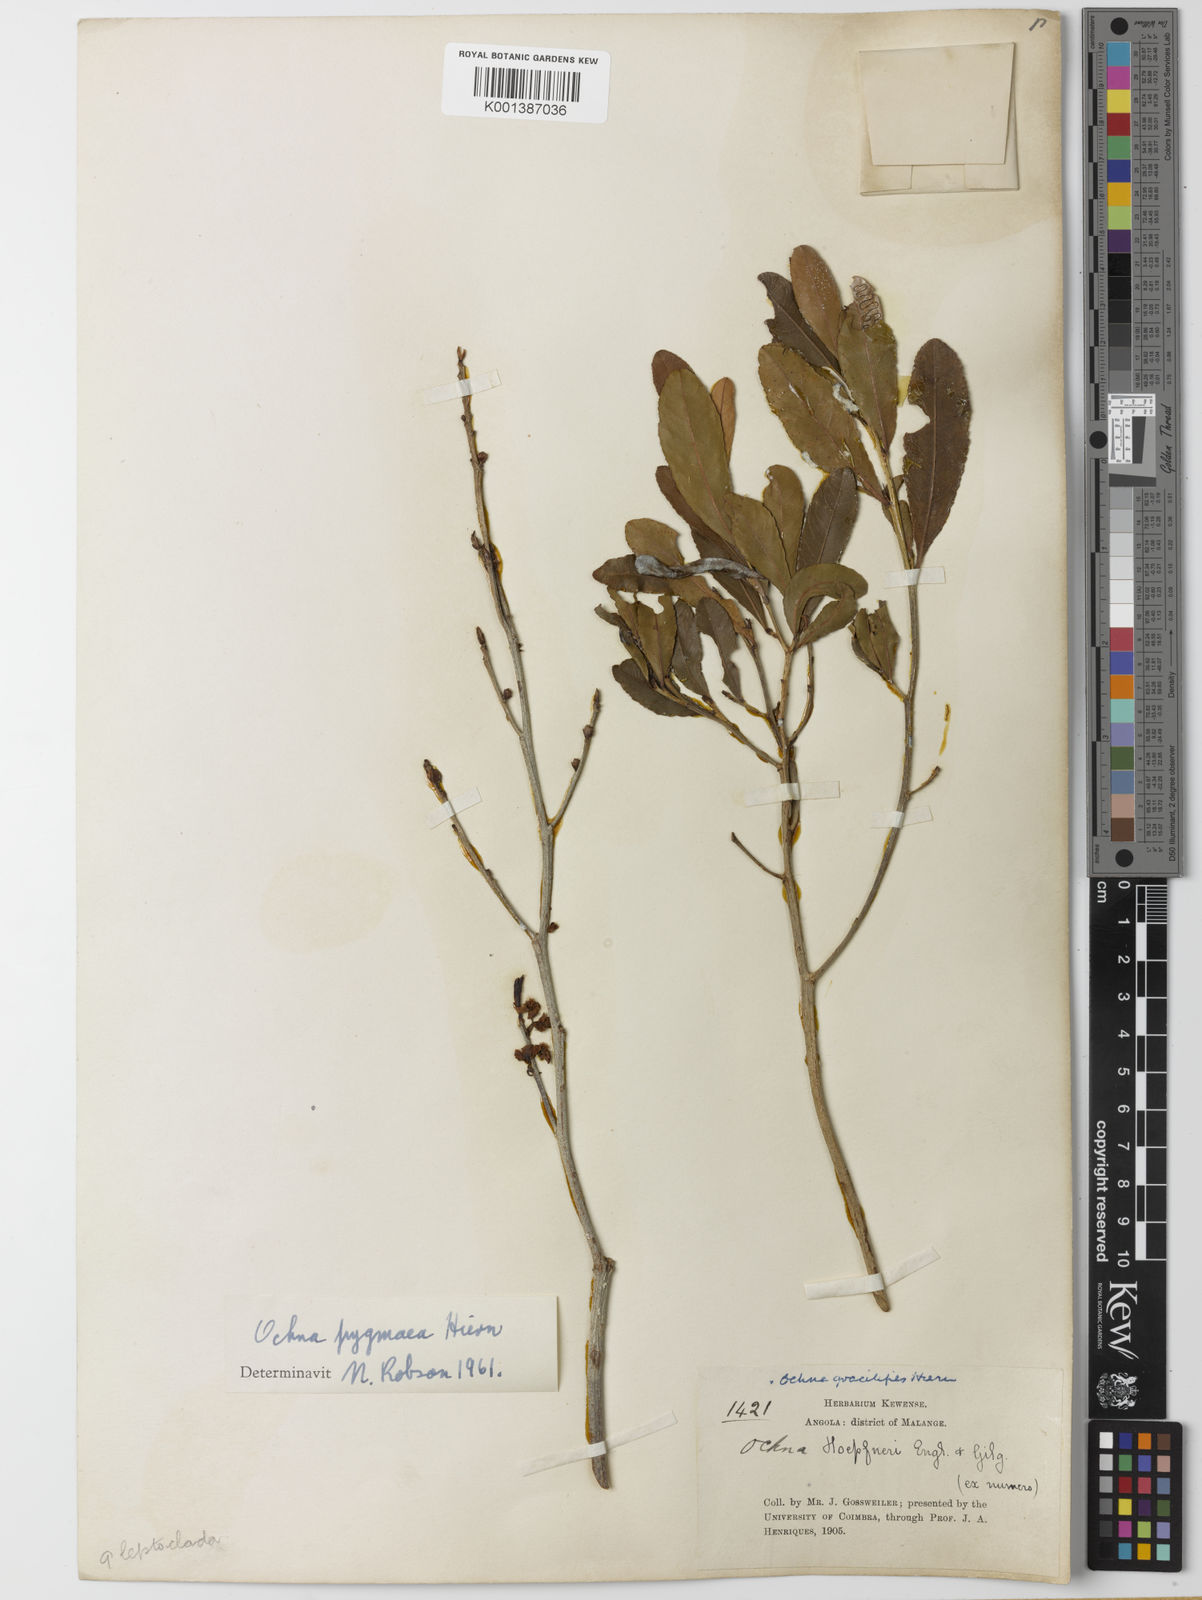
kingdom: Plantae
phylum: Tracheophyta
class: Magnoliopsida
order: Malpighiales
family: Ochnaceae
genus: Ochna
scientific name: Ochna pygmaea
